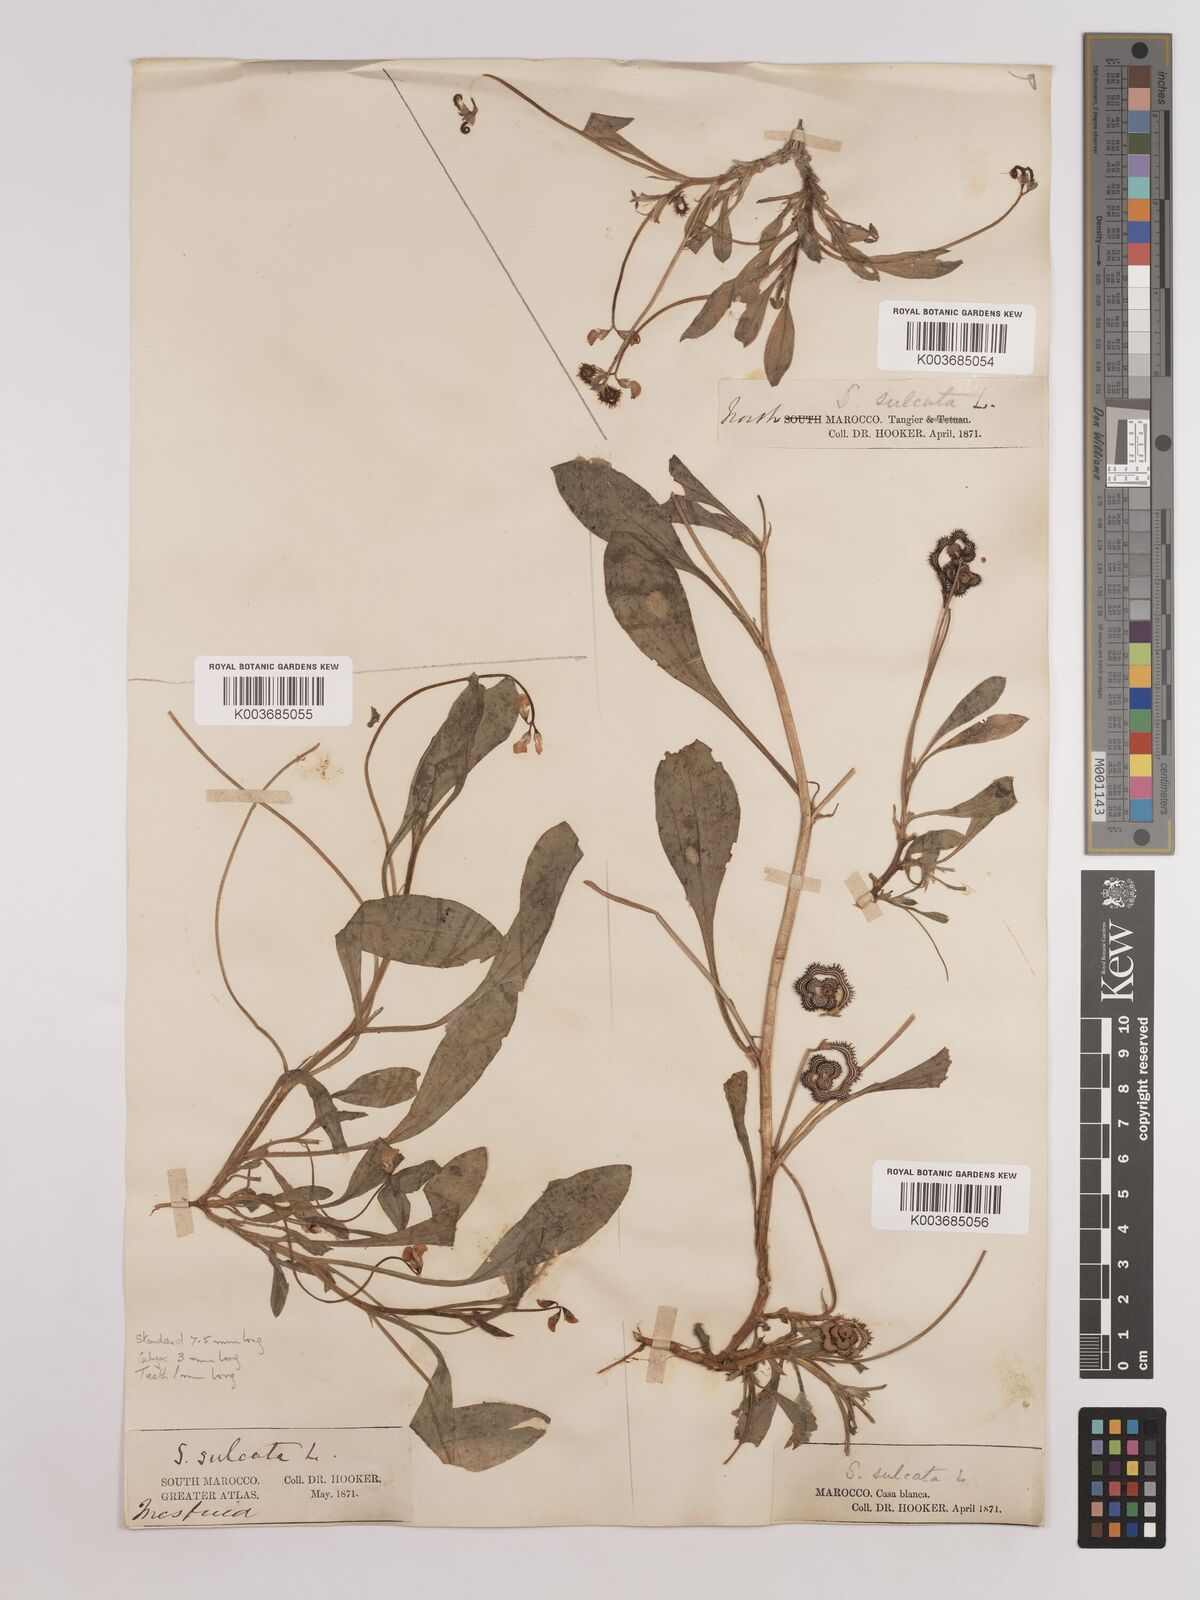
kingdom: Plantae
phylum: Tracheophyta
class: Magnoliopsida
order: Fabales
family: Fabaceae
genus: Scorpiurus
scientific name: Scorpiurus muricatus
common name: Caterpillar-plant
